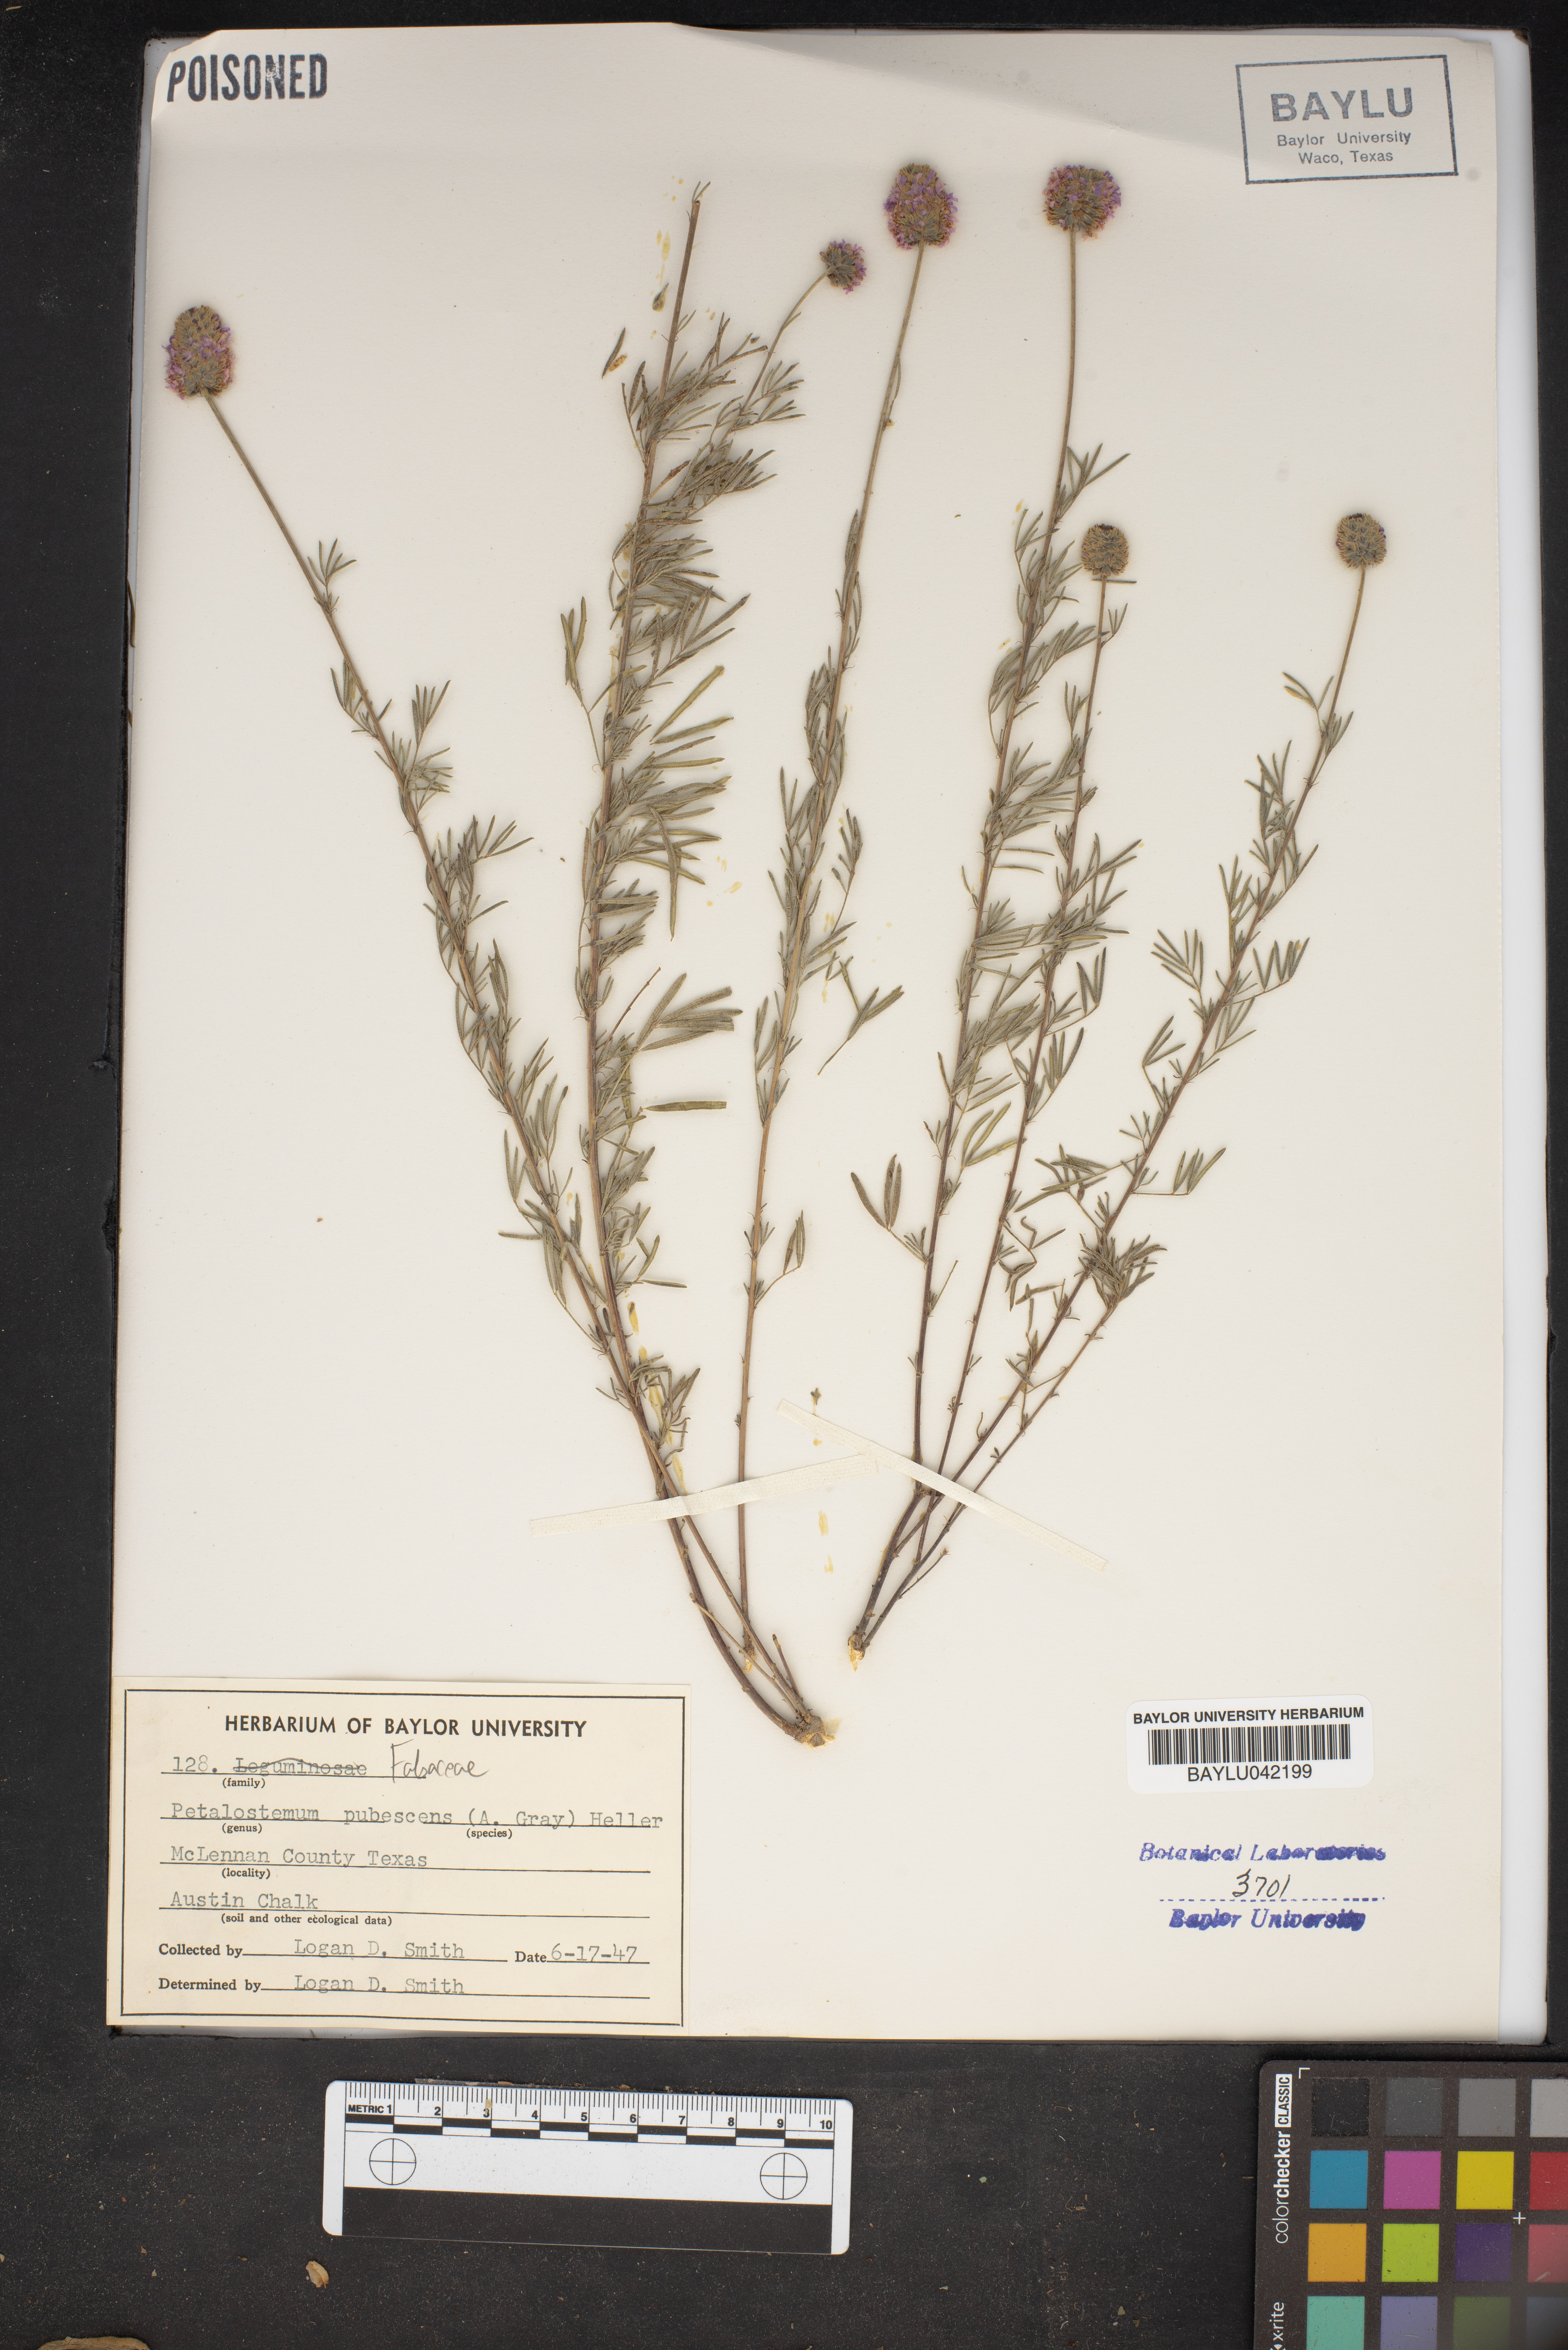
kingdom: Plantae
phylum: Tracheophyta
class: Magnoliopsida
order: Fabales
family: Fabaceae
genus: Dalea
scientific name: Dalea
